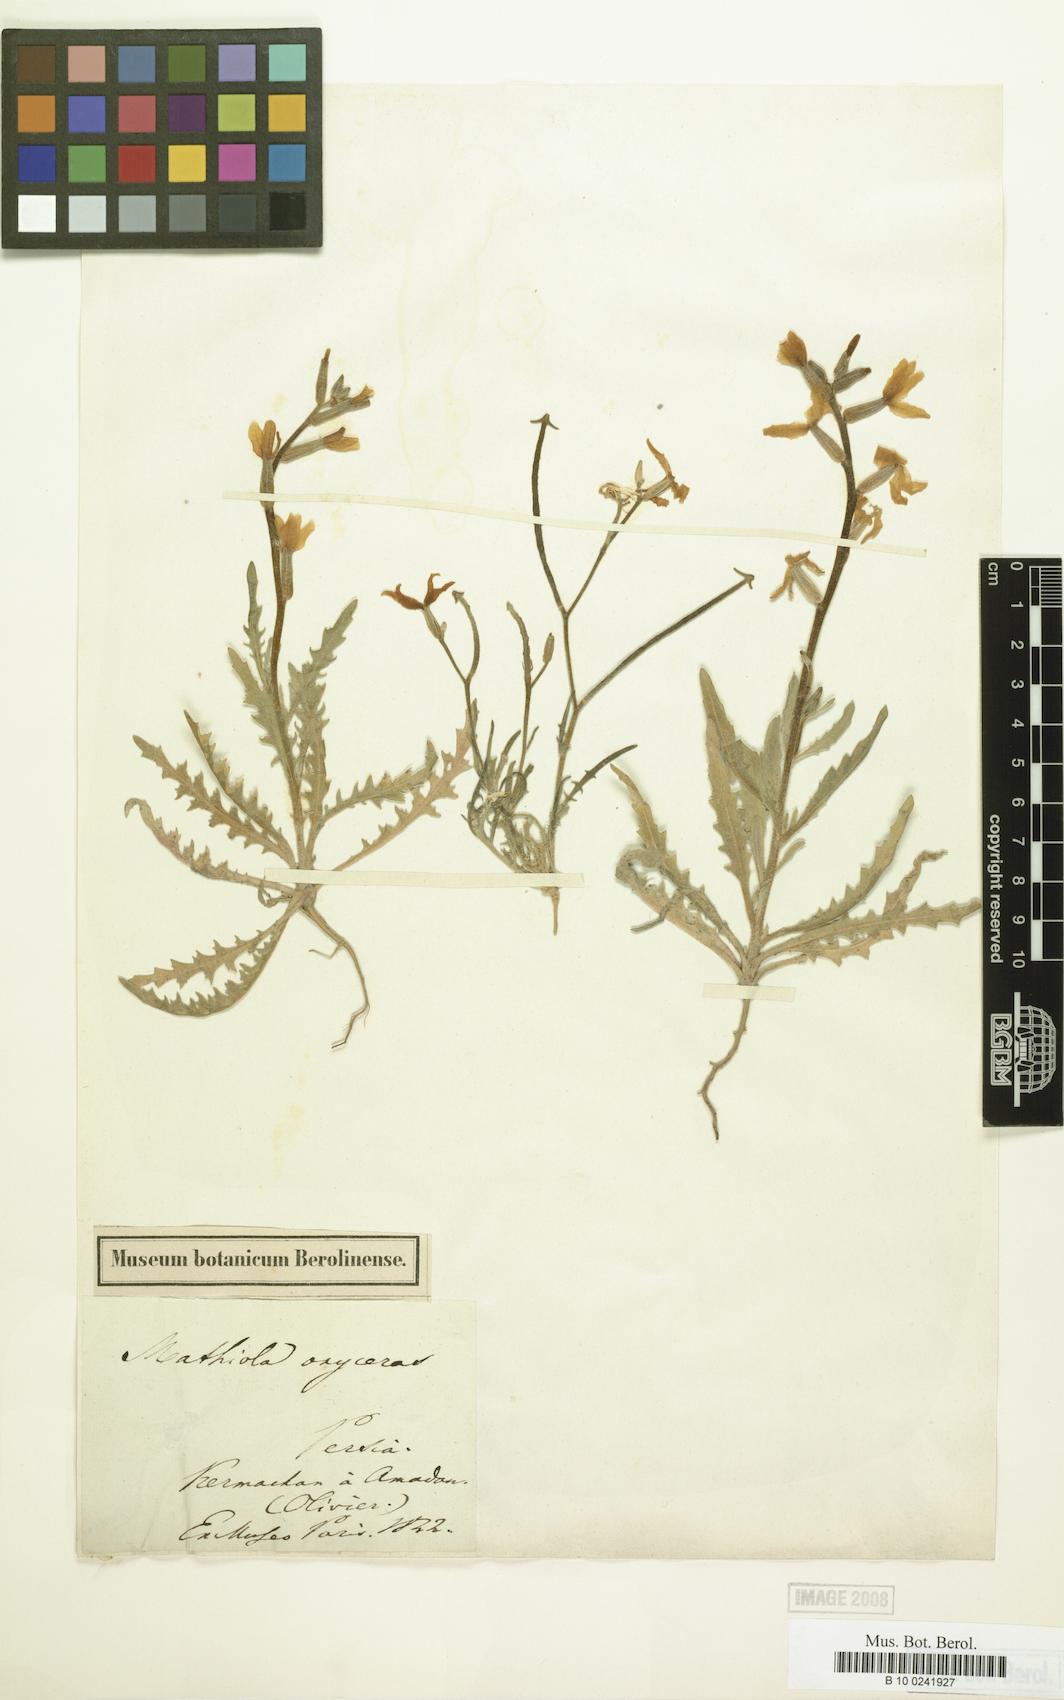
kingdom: Plantae
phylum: Tracheophyta
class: Magnoliopsida
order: Brassicales
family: Brassicaceae
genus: Matthiola
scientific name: Matthiola longipetala
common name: Night-scented stock
